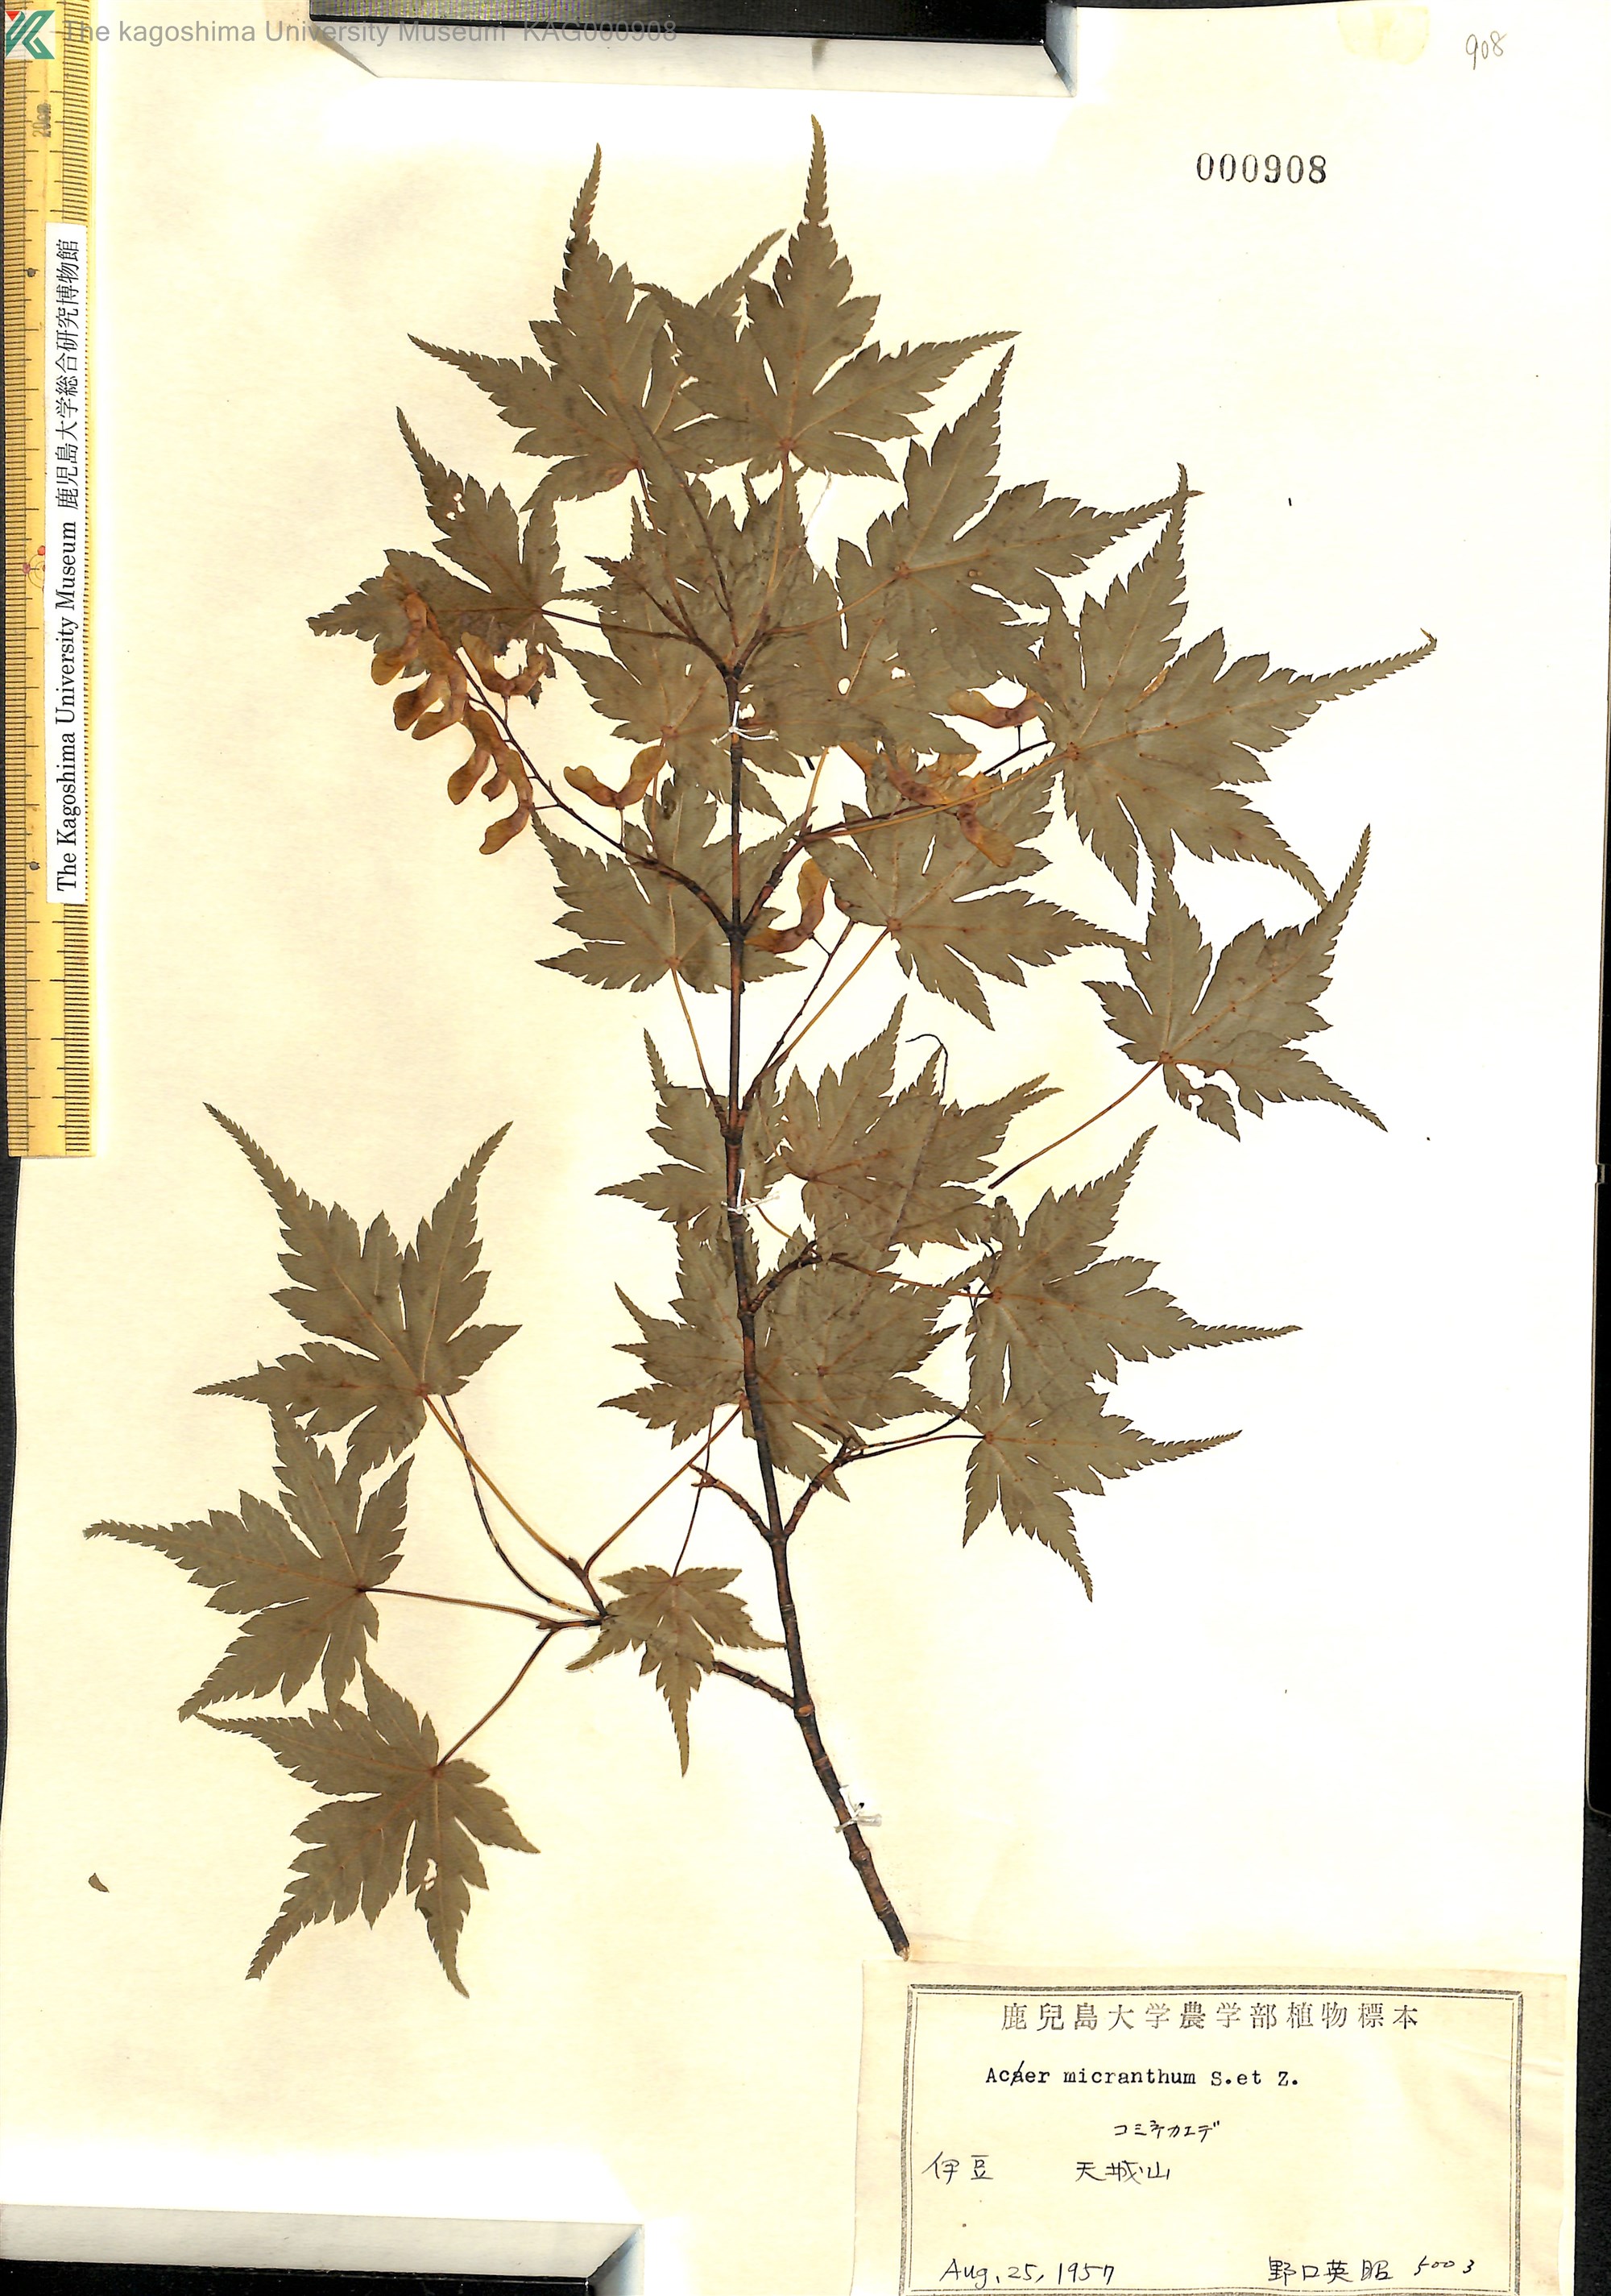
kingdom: Plantae
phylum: Tracheophyta
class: Magnoliopsida
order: Sapindales
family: Sapindaceae
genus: Acer
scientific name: Acer micranthum
